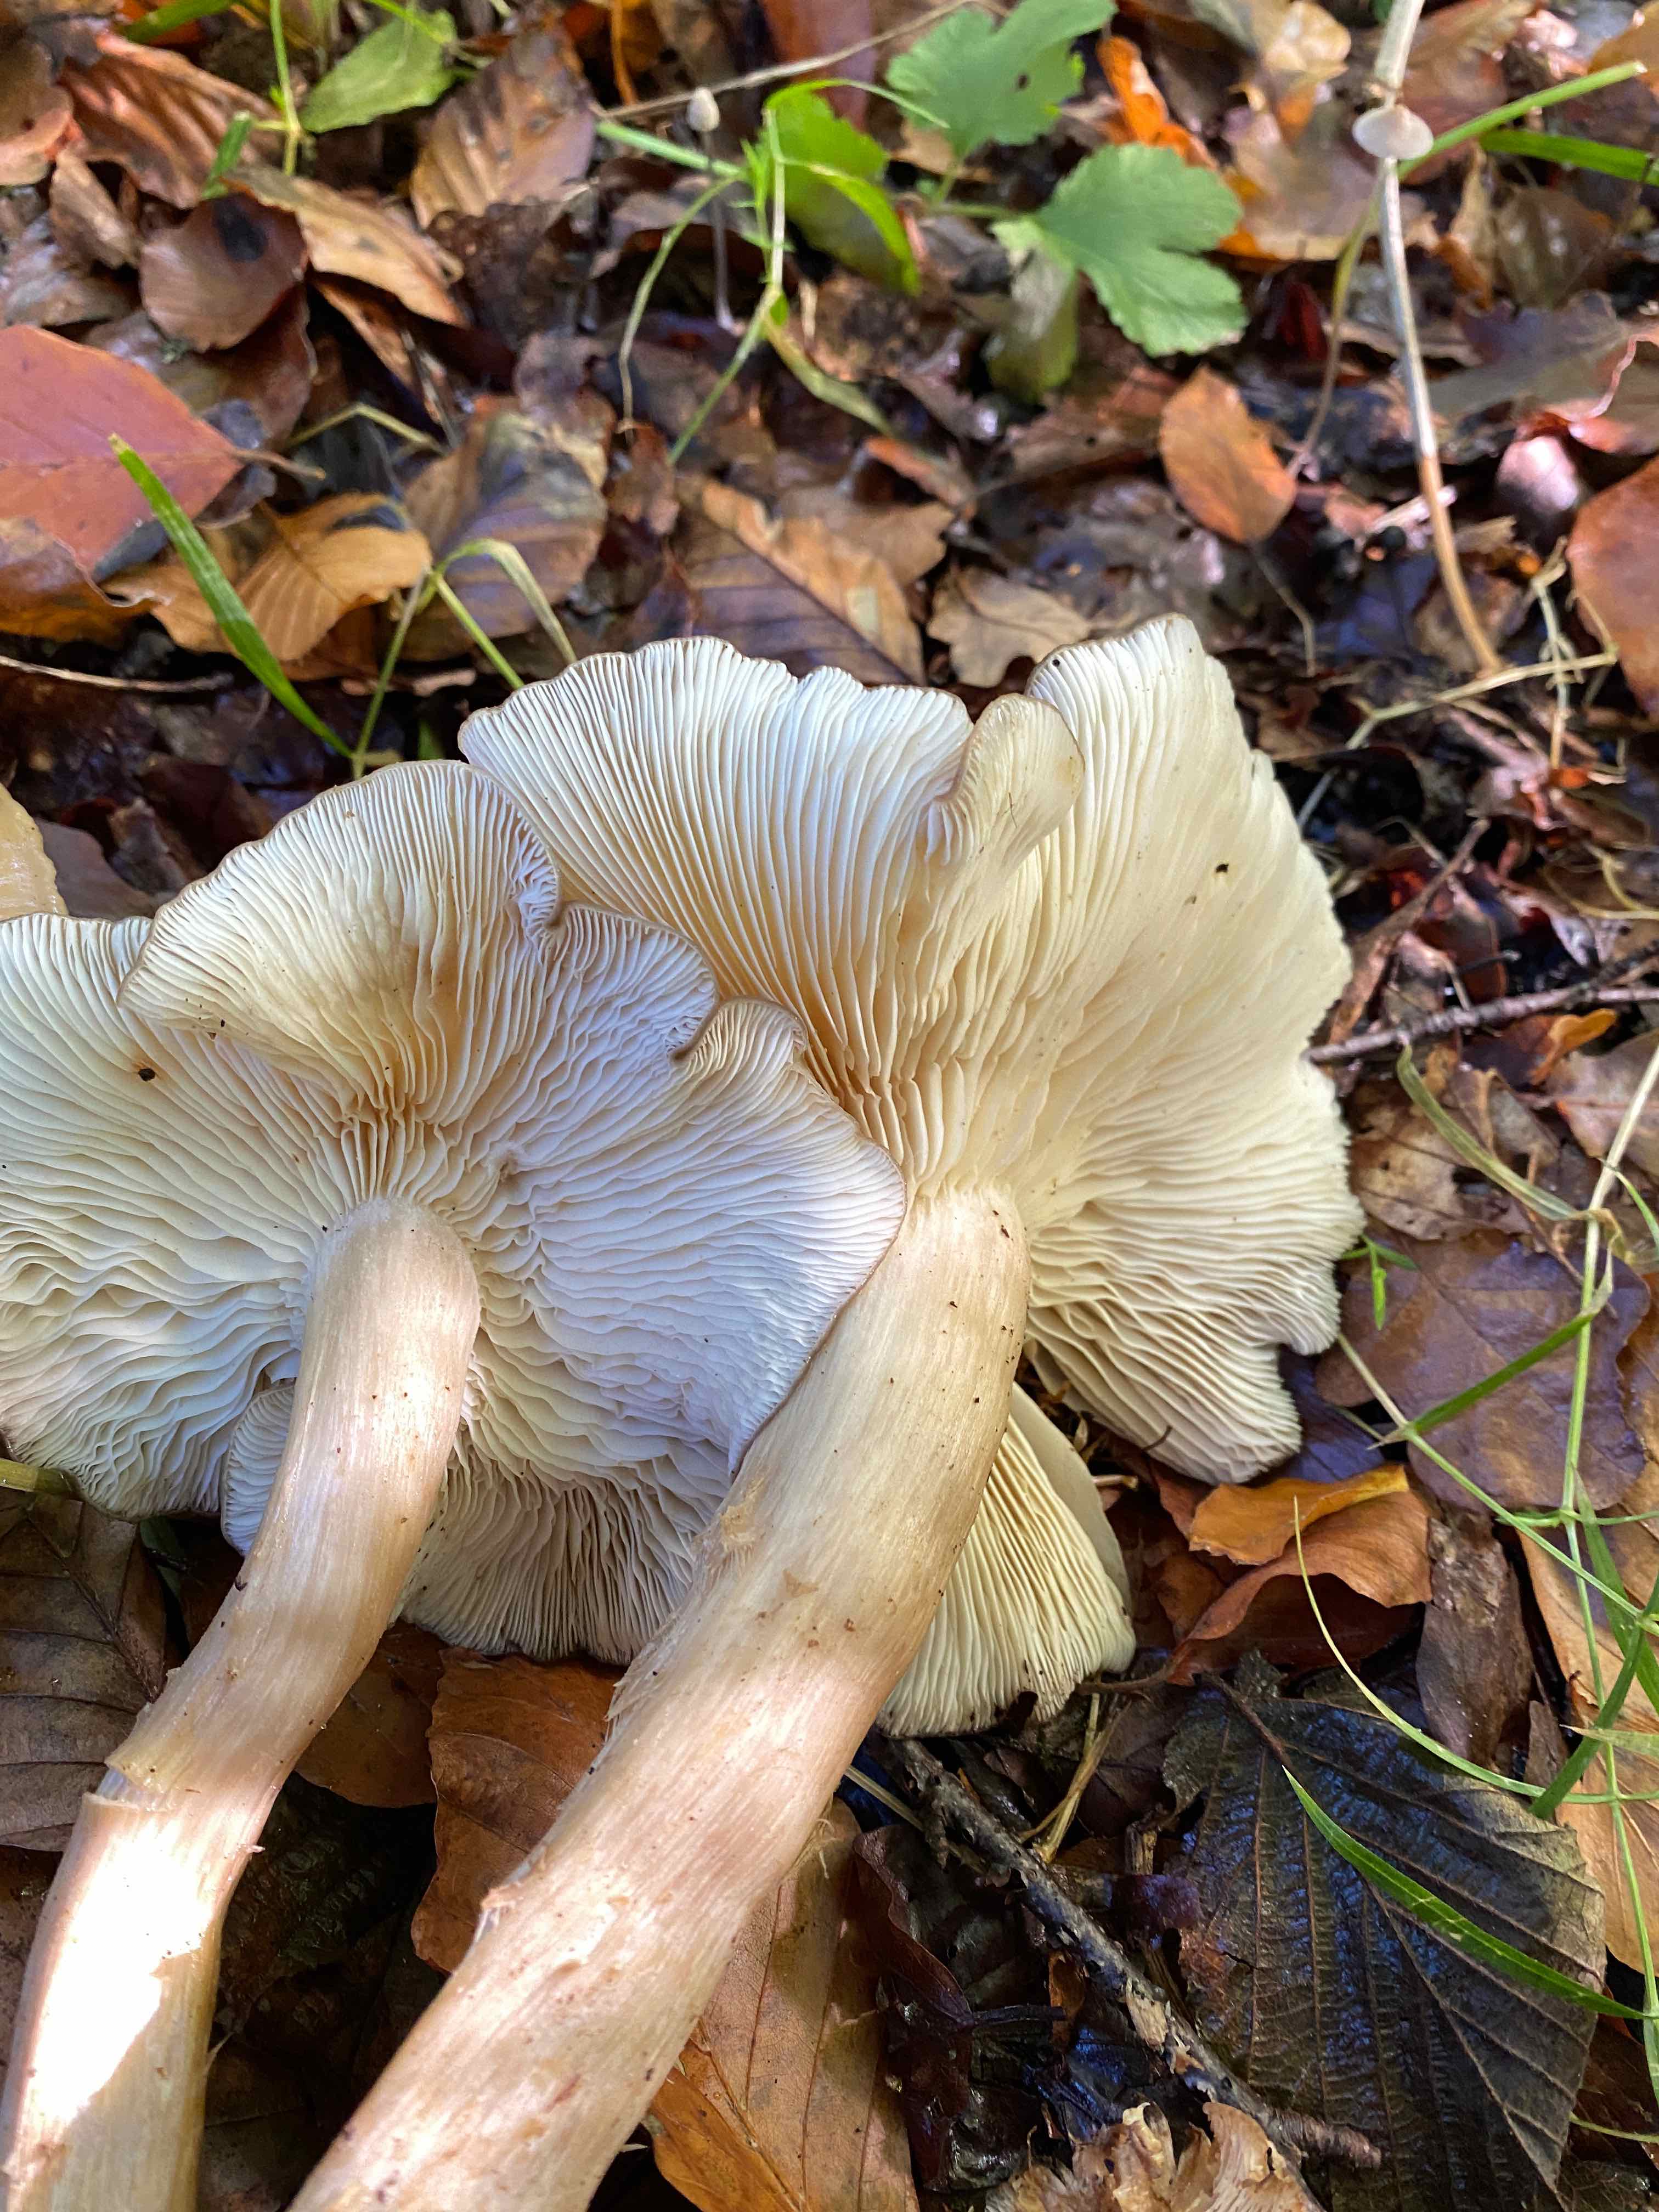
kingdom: Fungi
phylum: Basidiomycota
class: Agaricomycetes
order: Agaricales
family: Lyophyllaceae
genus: Lyophyllum
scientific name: Lyophyllum decastes
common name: Clustered domecap
